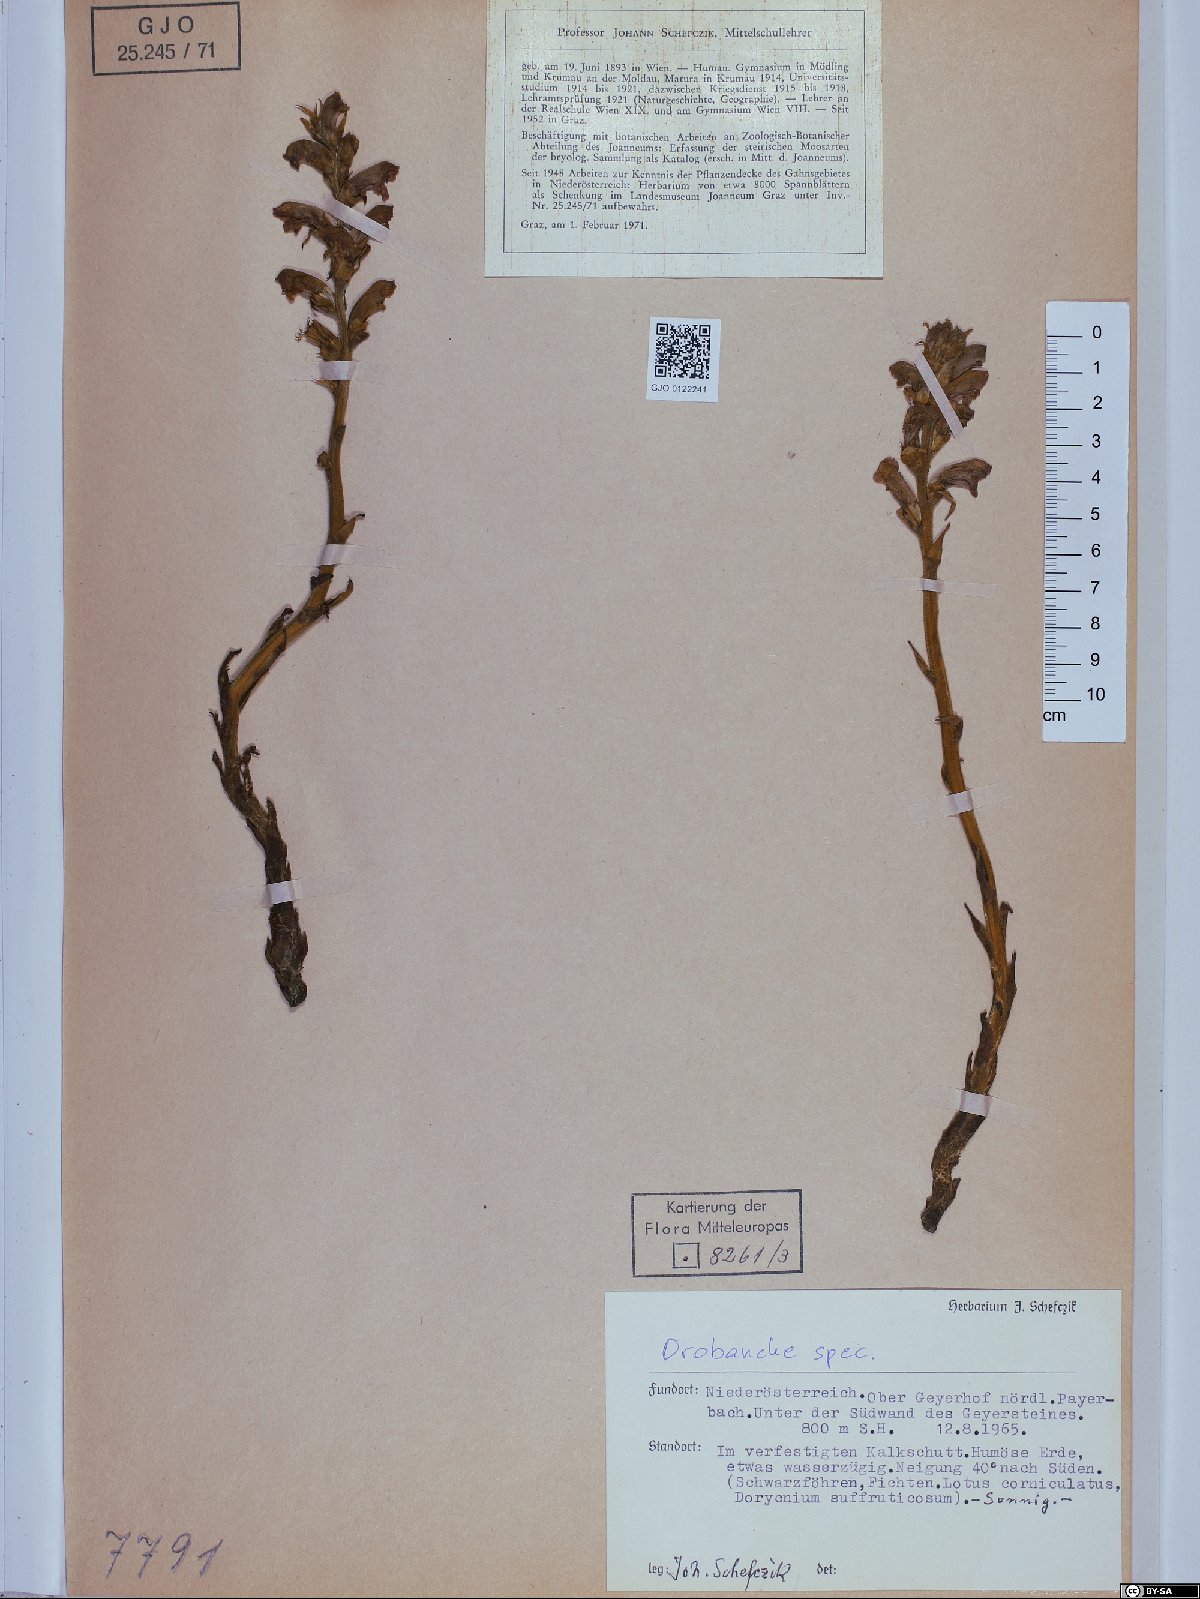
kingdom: Plantae
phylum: Tracheophyta
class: Magnoliopsida
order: Lamiales
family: Orobanchaceae
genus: Orobanche
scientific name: Orobanche
